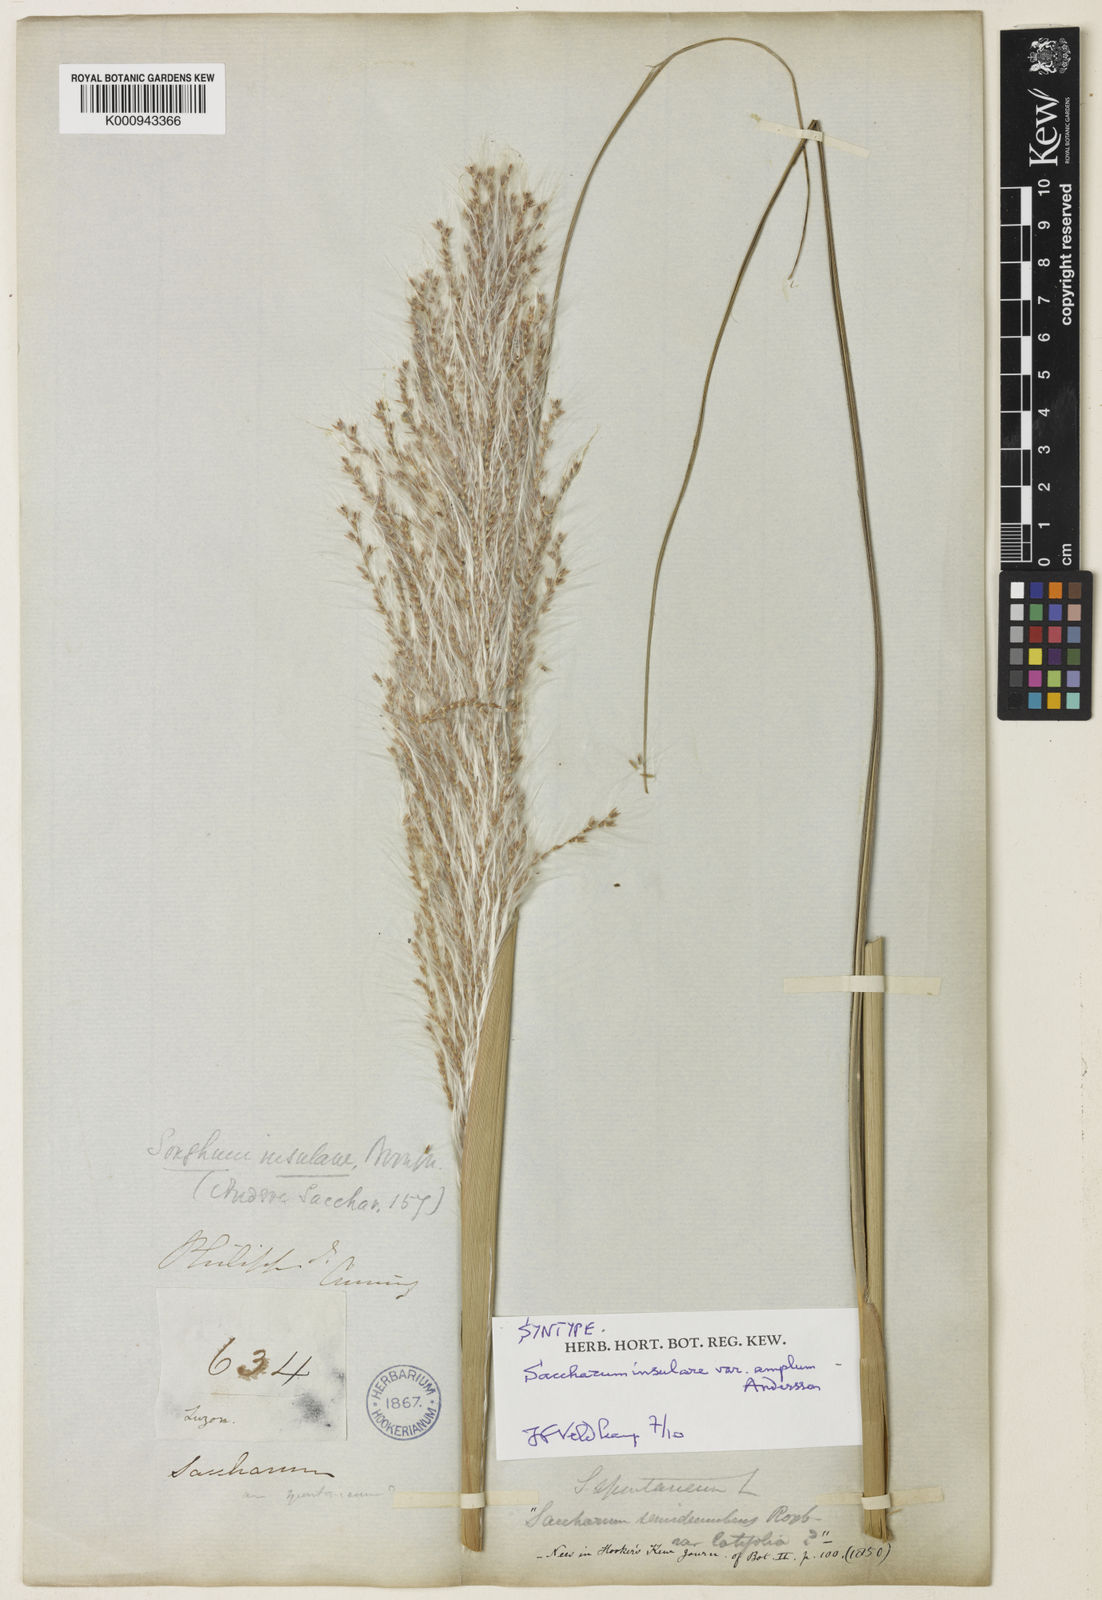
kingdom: Plantae
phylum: Tracheophyta
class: Liliopsida
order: Poales
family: Poaceae
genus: Saccharum
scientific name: Saccharum spontaneum
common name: Wild sugarcane
